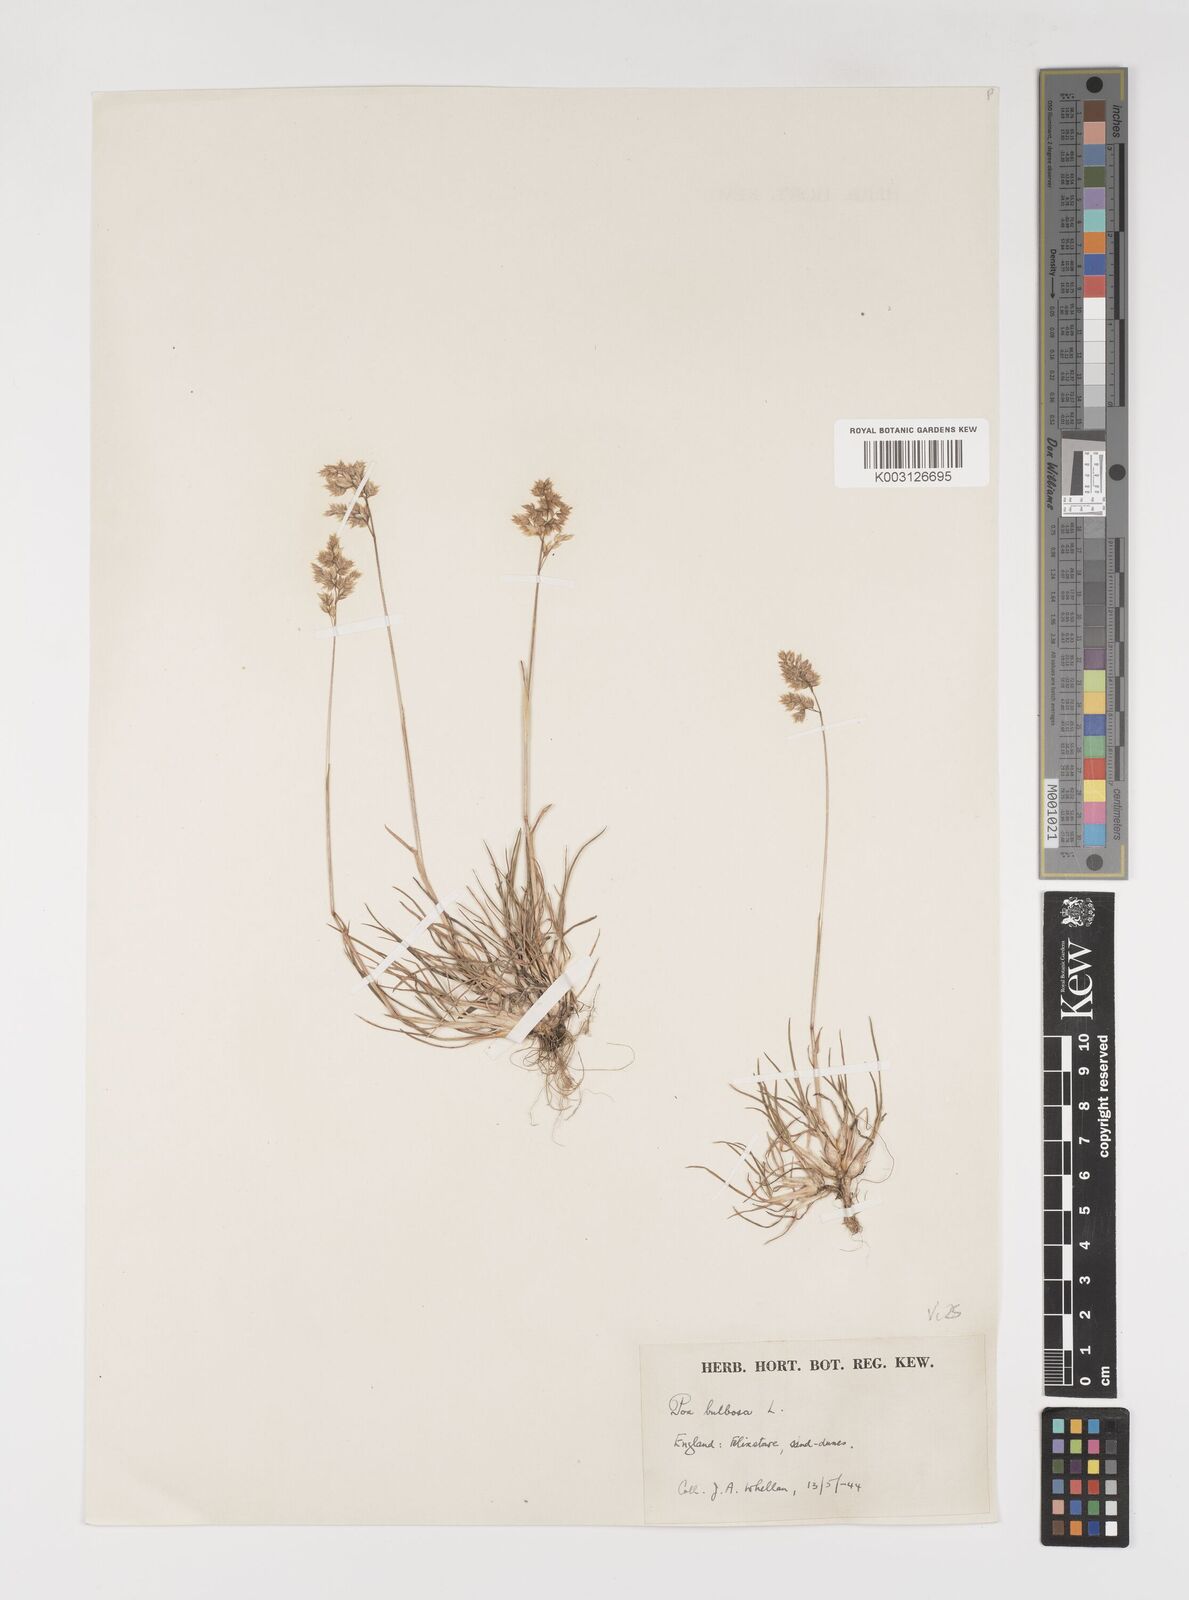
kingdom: Plantae
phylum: Tracheophyta
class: Liliopsida
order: Poales
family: Poaceae
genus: Poa
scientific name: Poa bulbosa
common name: Bulbous bluegrass
